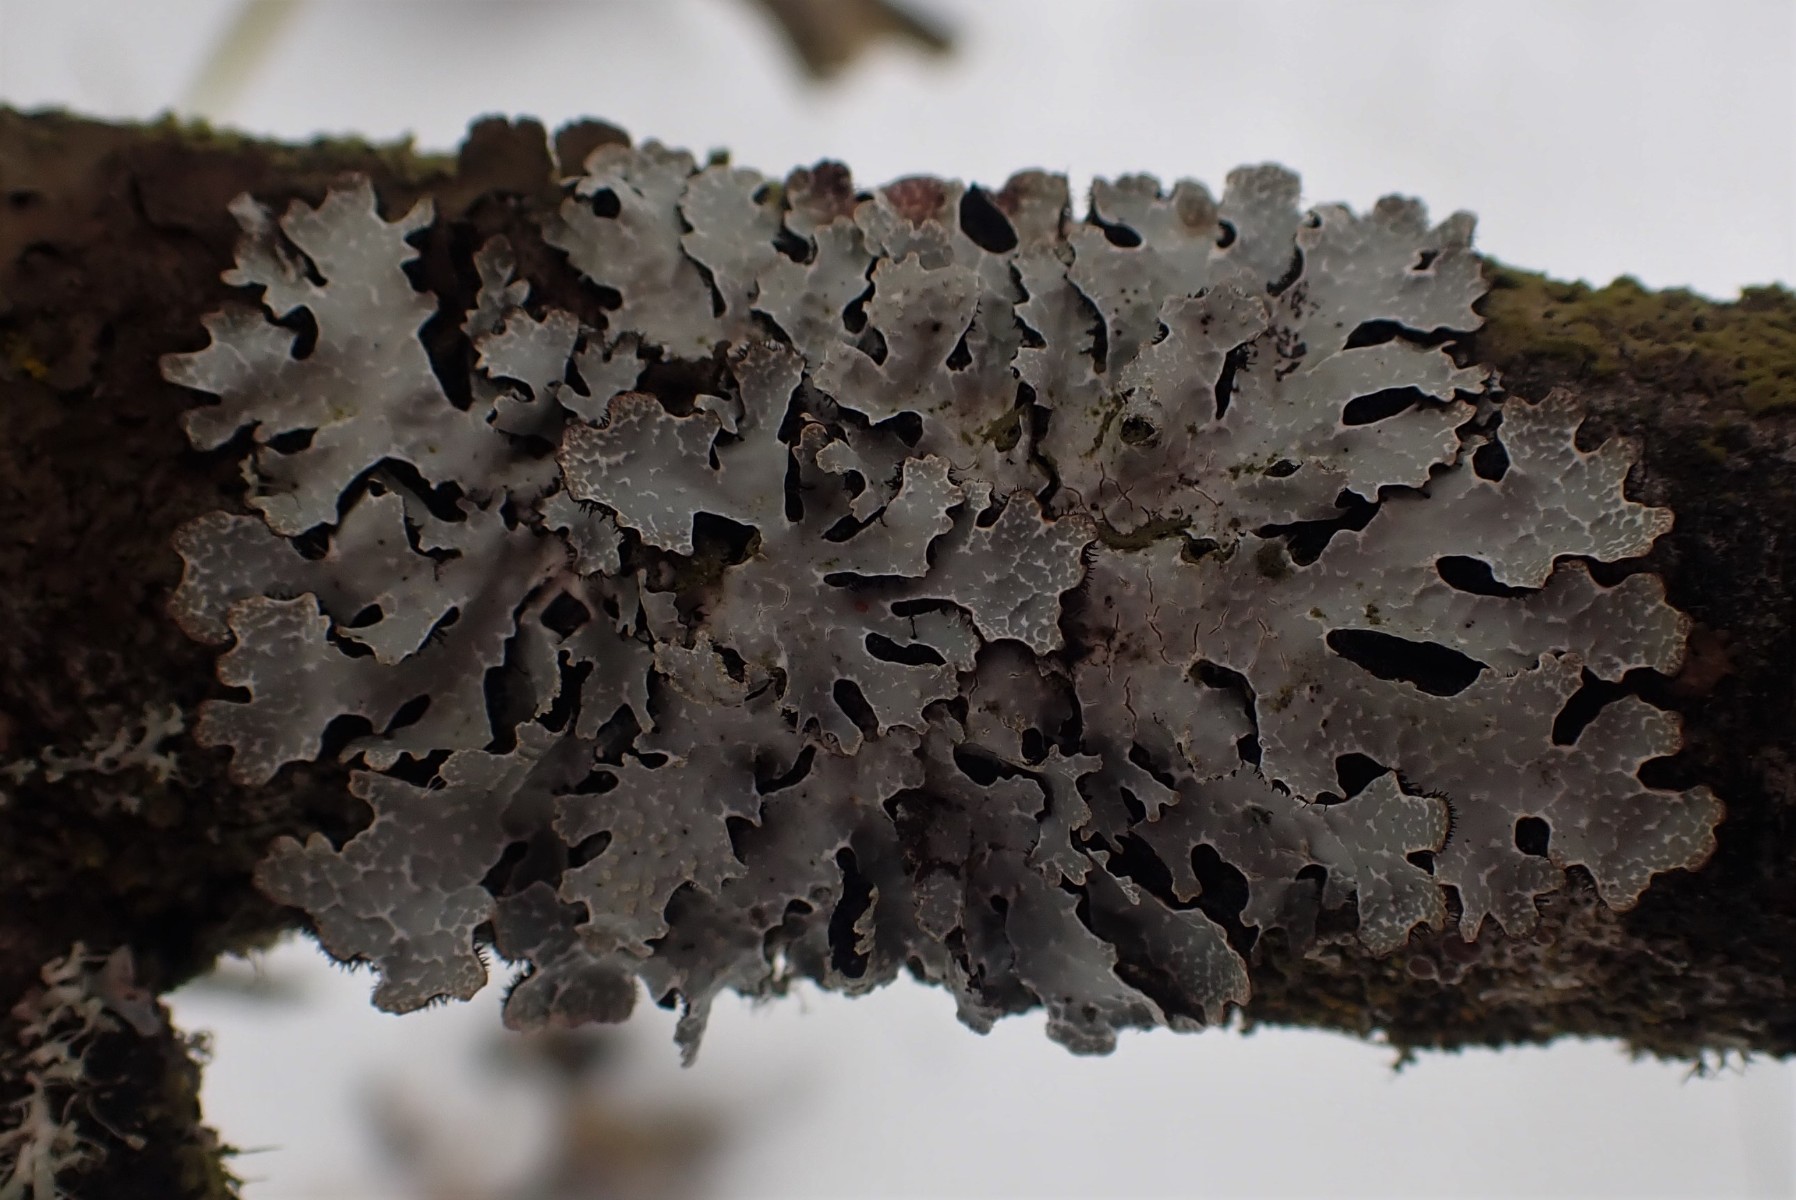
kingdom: Fungi
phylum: Ascomycota
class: Lecanoromycetes
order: Lecanorales
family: Parmeliaceae
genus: Parmelia
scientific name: Parmelia sulcata
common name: rynket skållav
